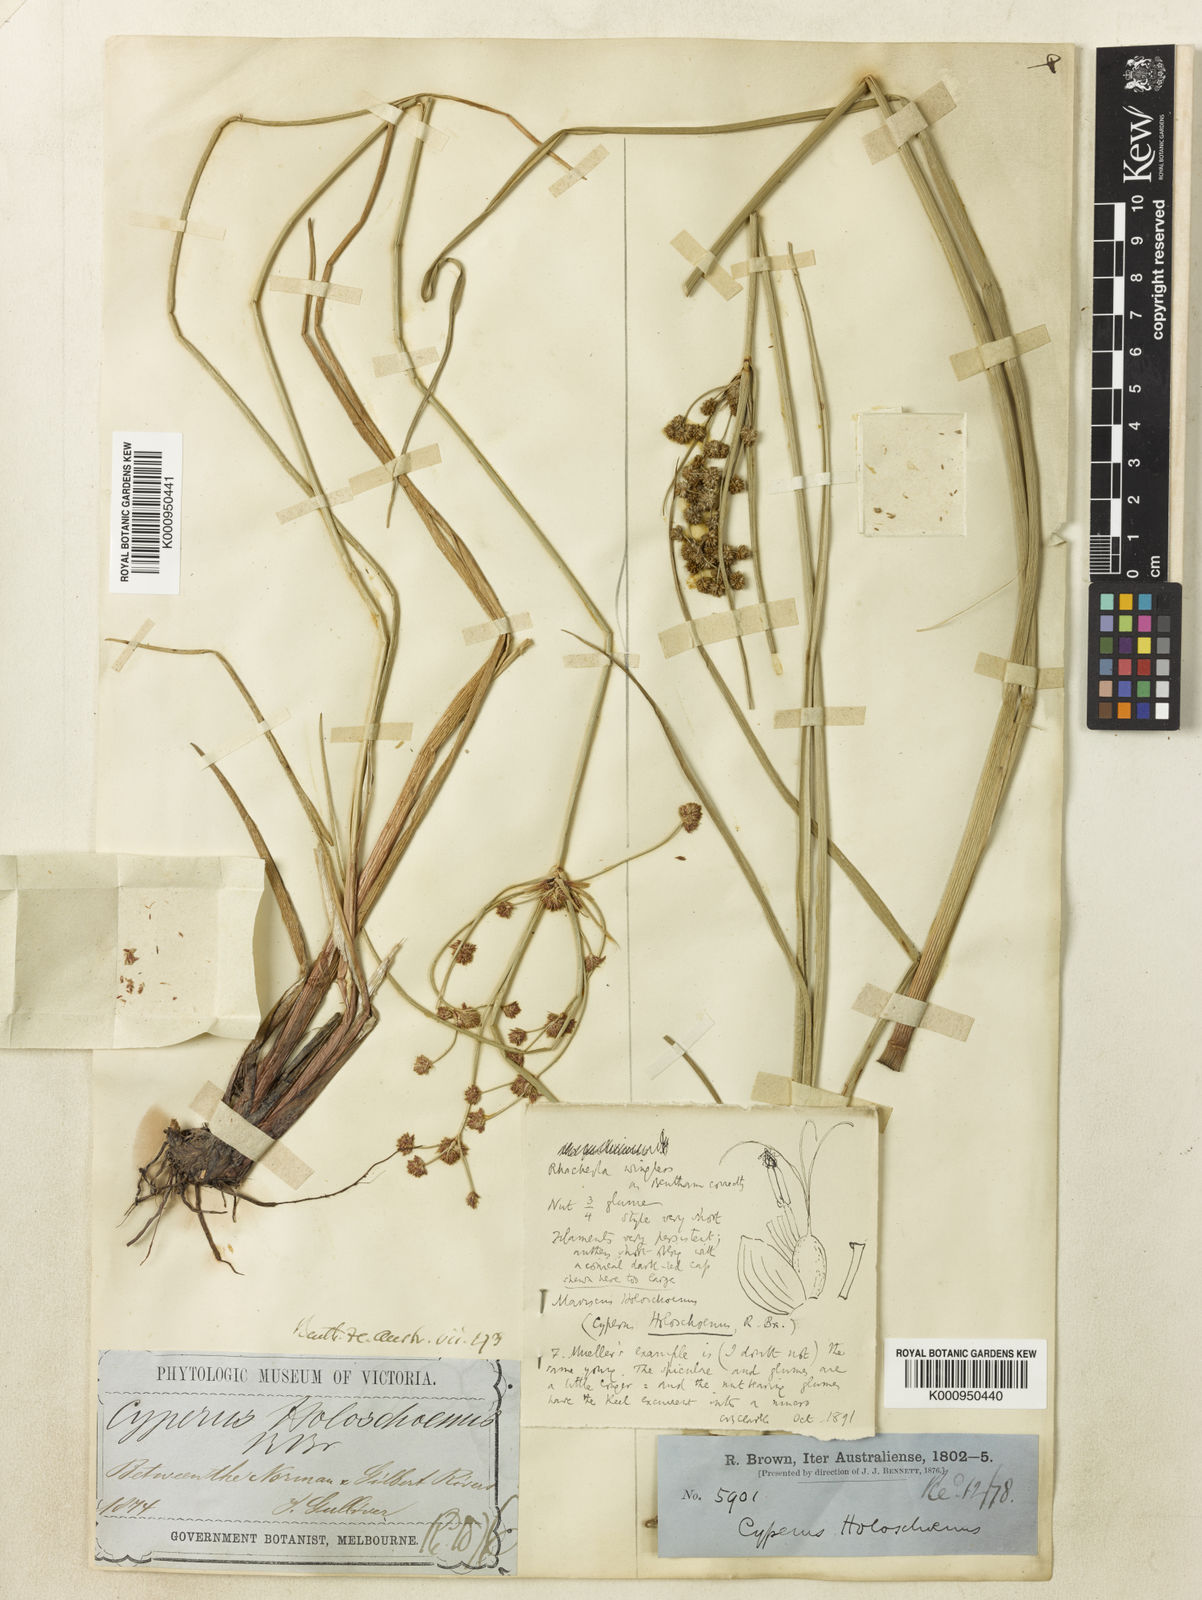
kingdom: Plantae
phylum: Tracheophyta
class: Liliopsida
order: Poales
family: Cyperaceae
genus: Cyperus
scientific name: Cyperus holoschoenus
